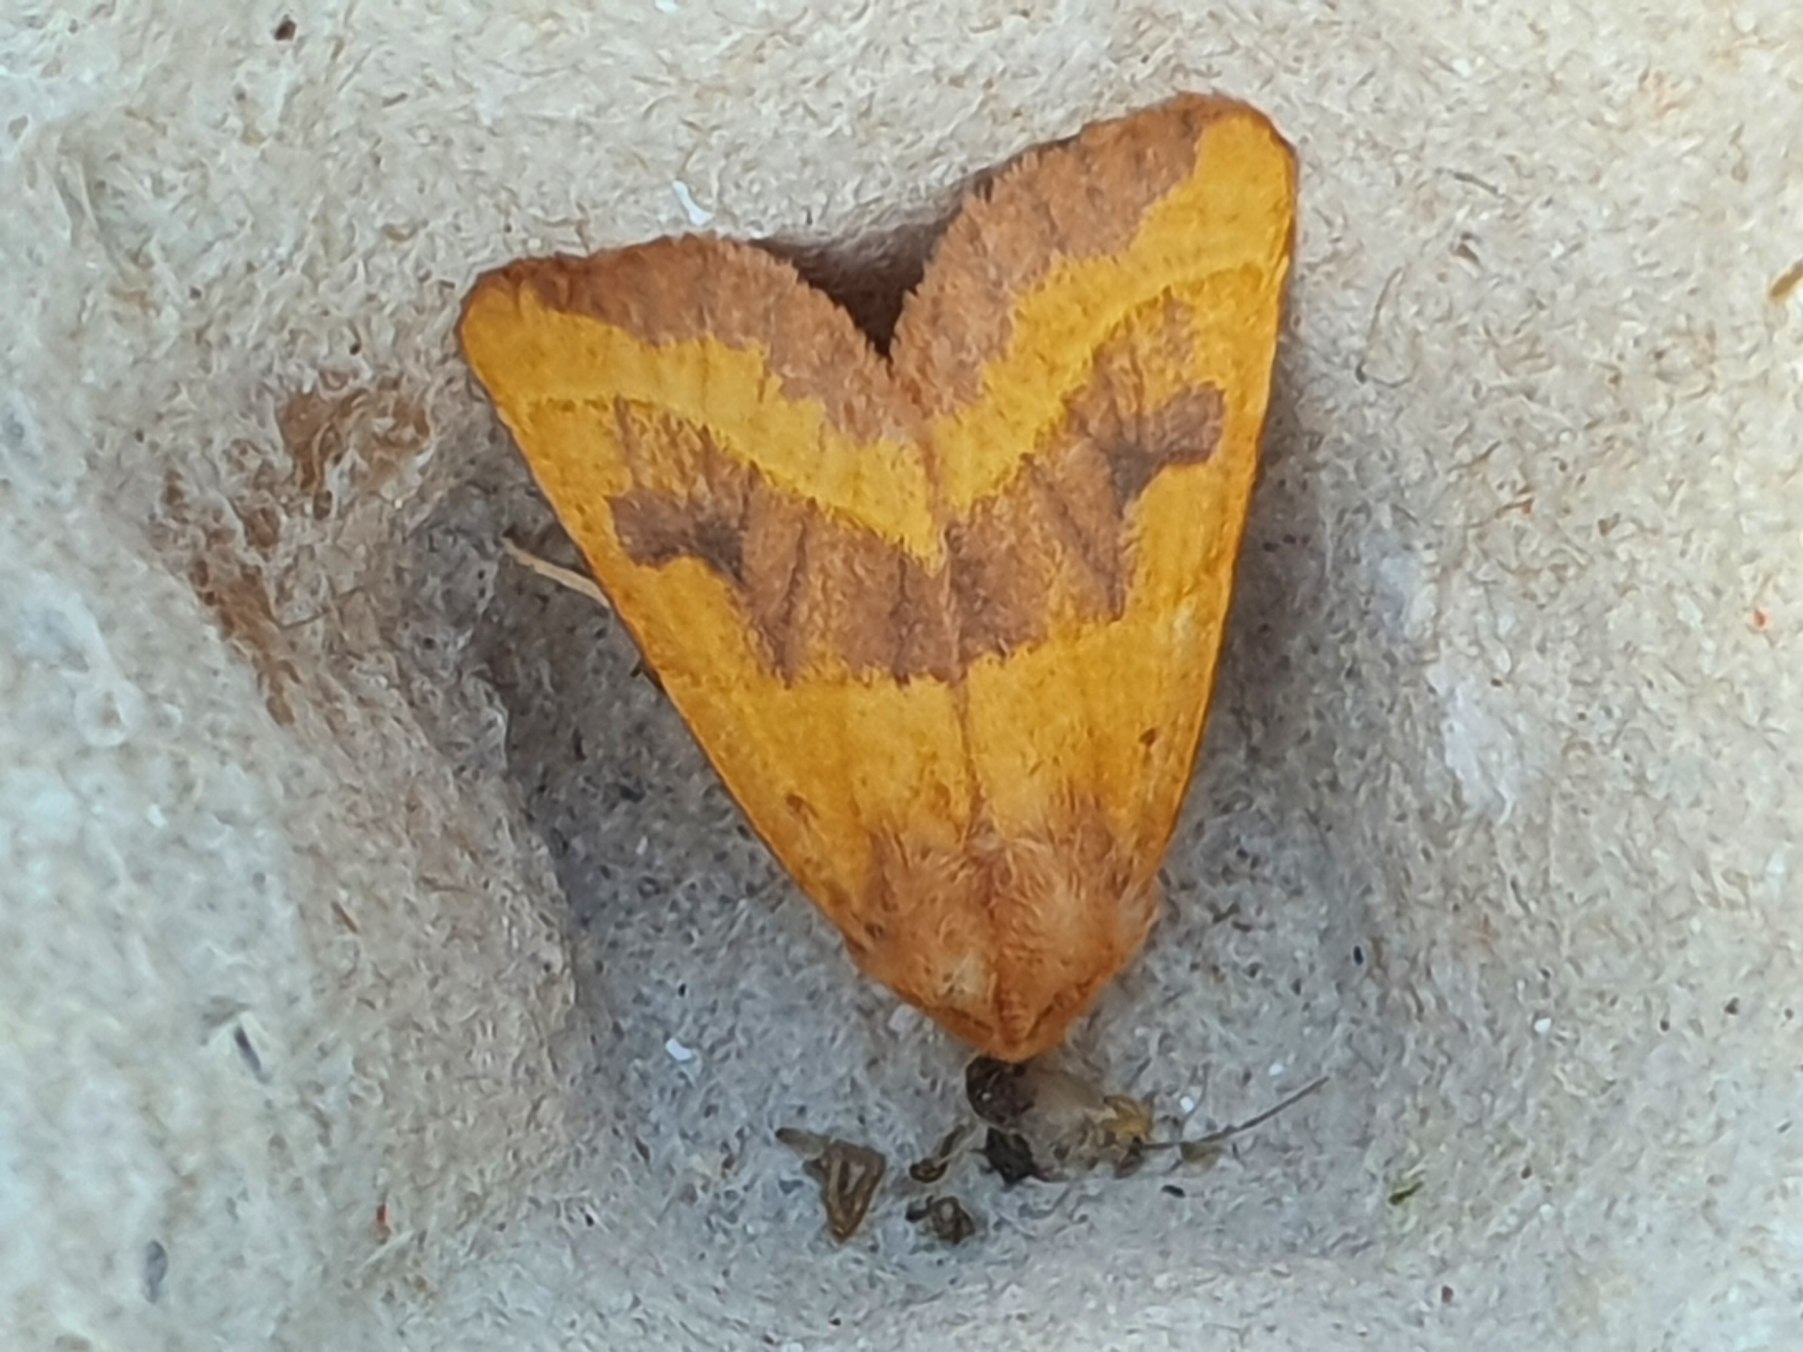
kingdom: Animalia
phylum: Arthropoda
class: Insecta
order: Lepidoptera
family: Noctuidae
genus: Atethmia
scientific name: Atethmia centrago
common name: Aske-septemberugle
